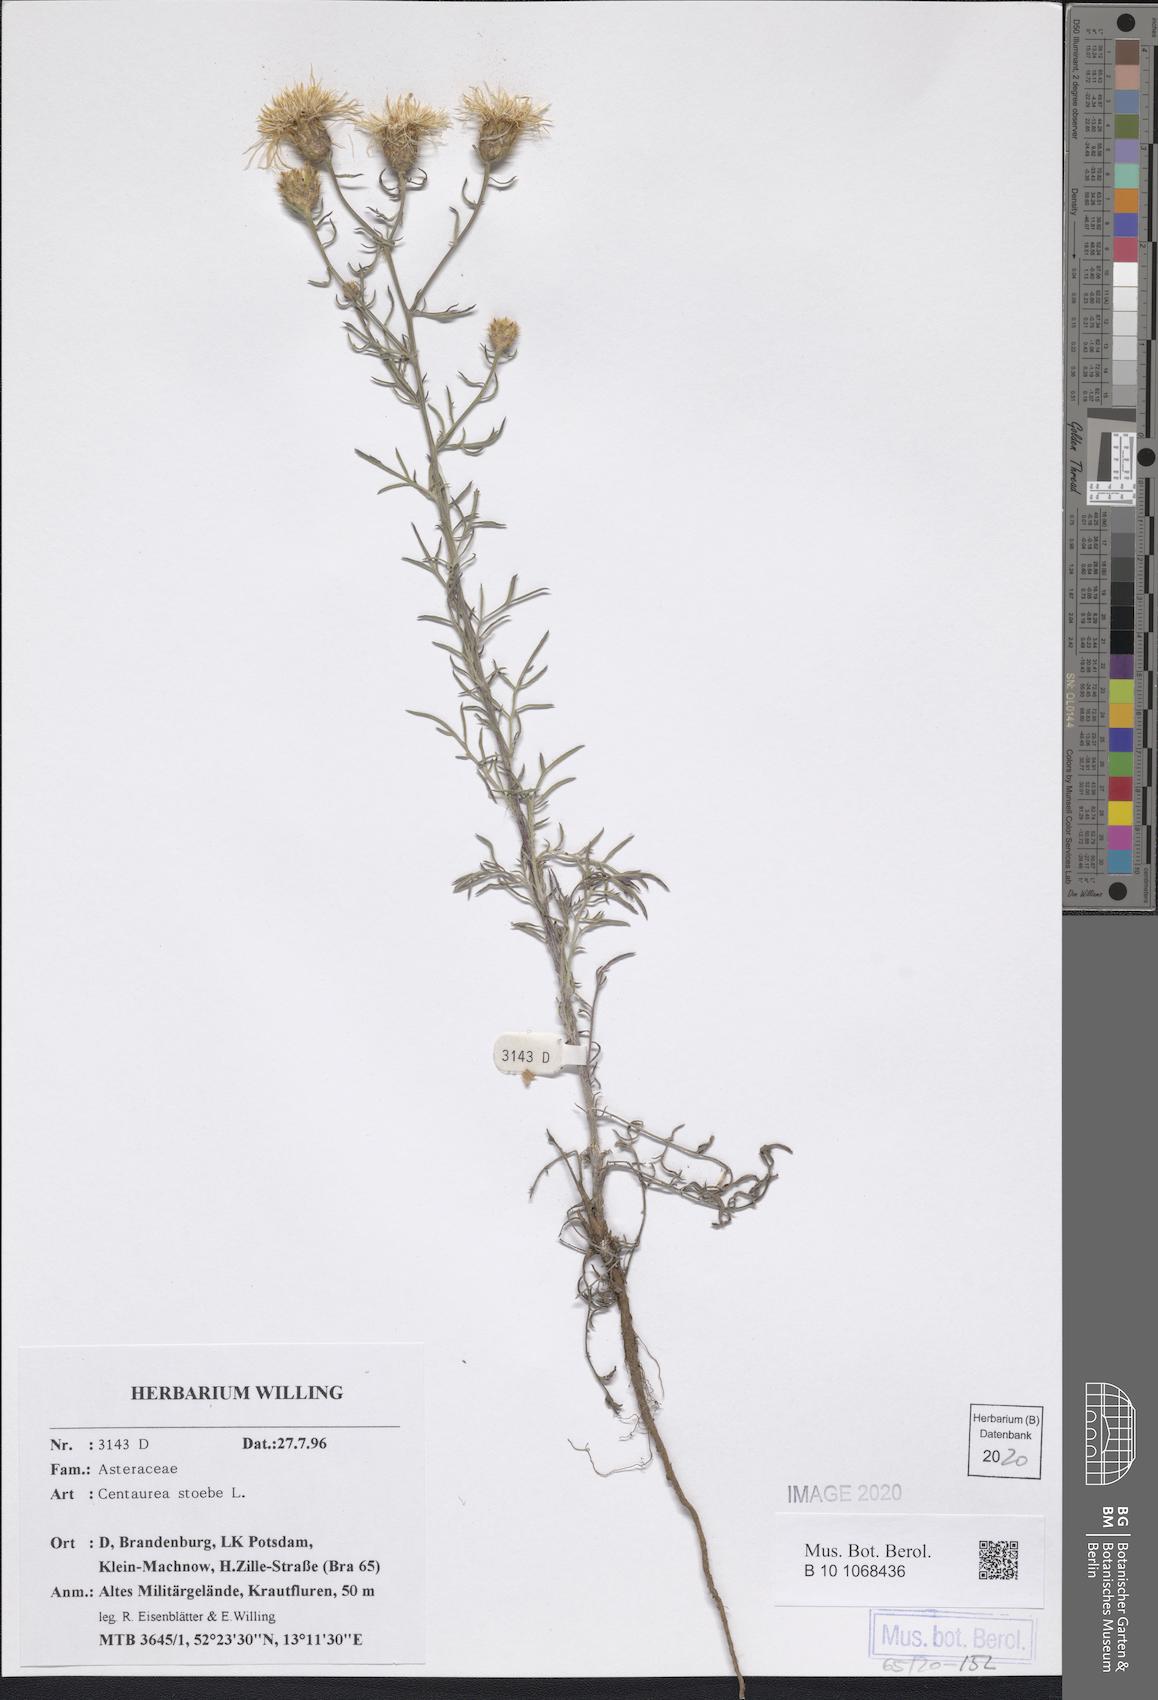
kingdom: Plantae
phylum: Tracheophyta
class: Magnoliopsida
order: Asterales
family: Asteraceae
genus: Centaurea
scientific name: Centaurea stoebe
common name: Spotted knapweed
